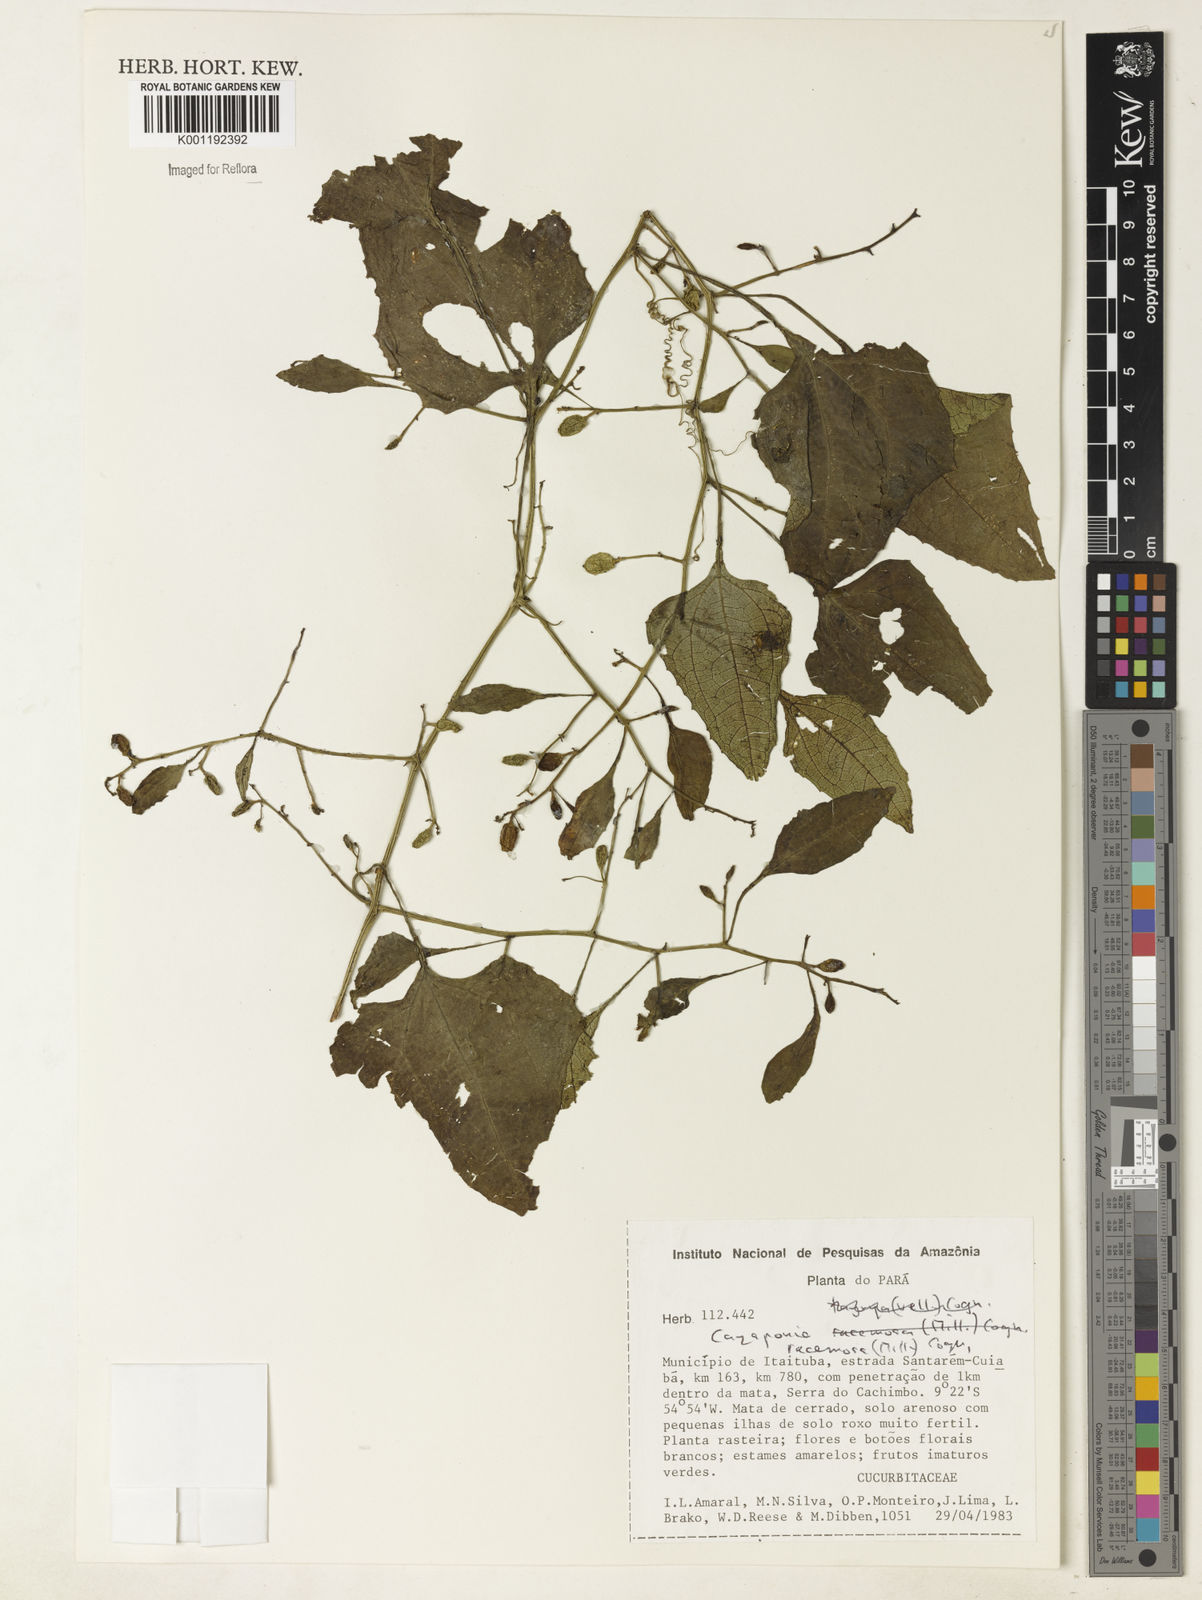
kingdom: Plantae
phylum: Tracheophyta
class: Magnoliopsida
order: Cucurbitales
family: Cucurbitaceae
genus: Cayaponia
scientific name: Cayaponia racemosa
